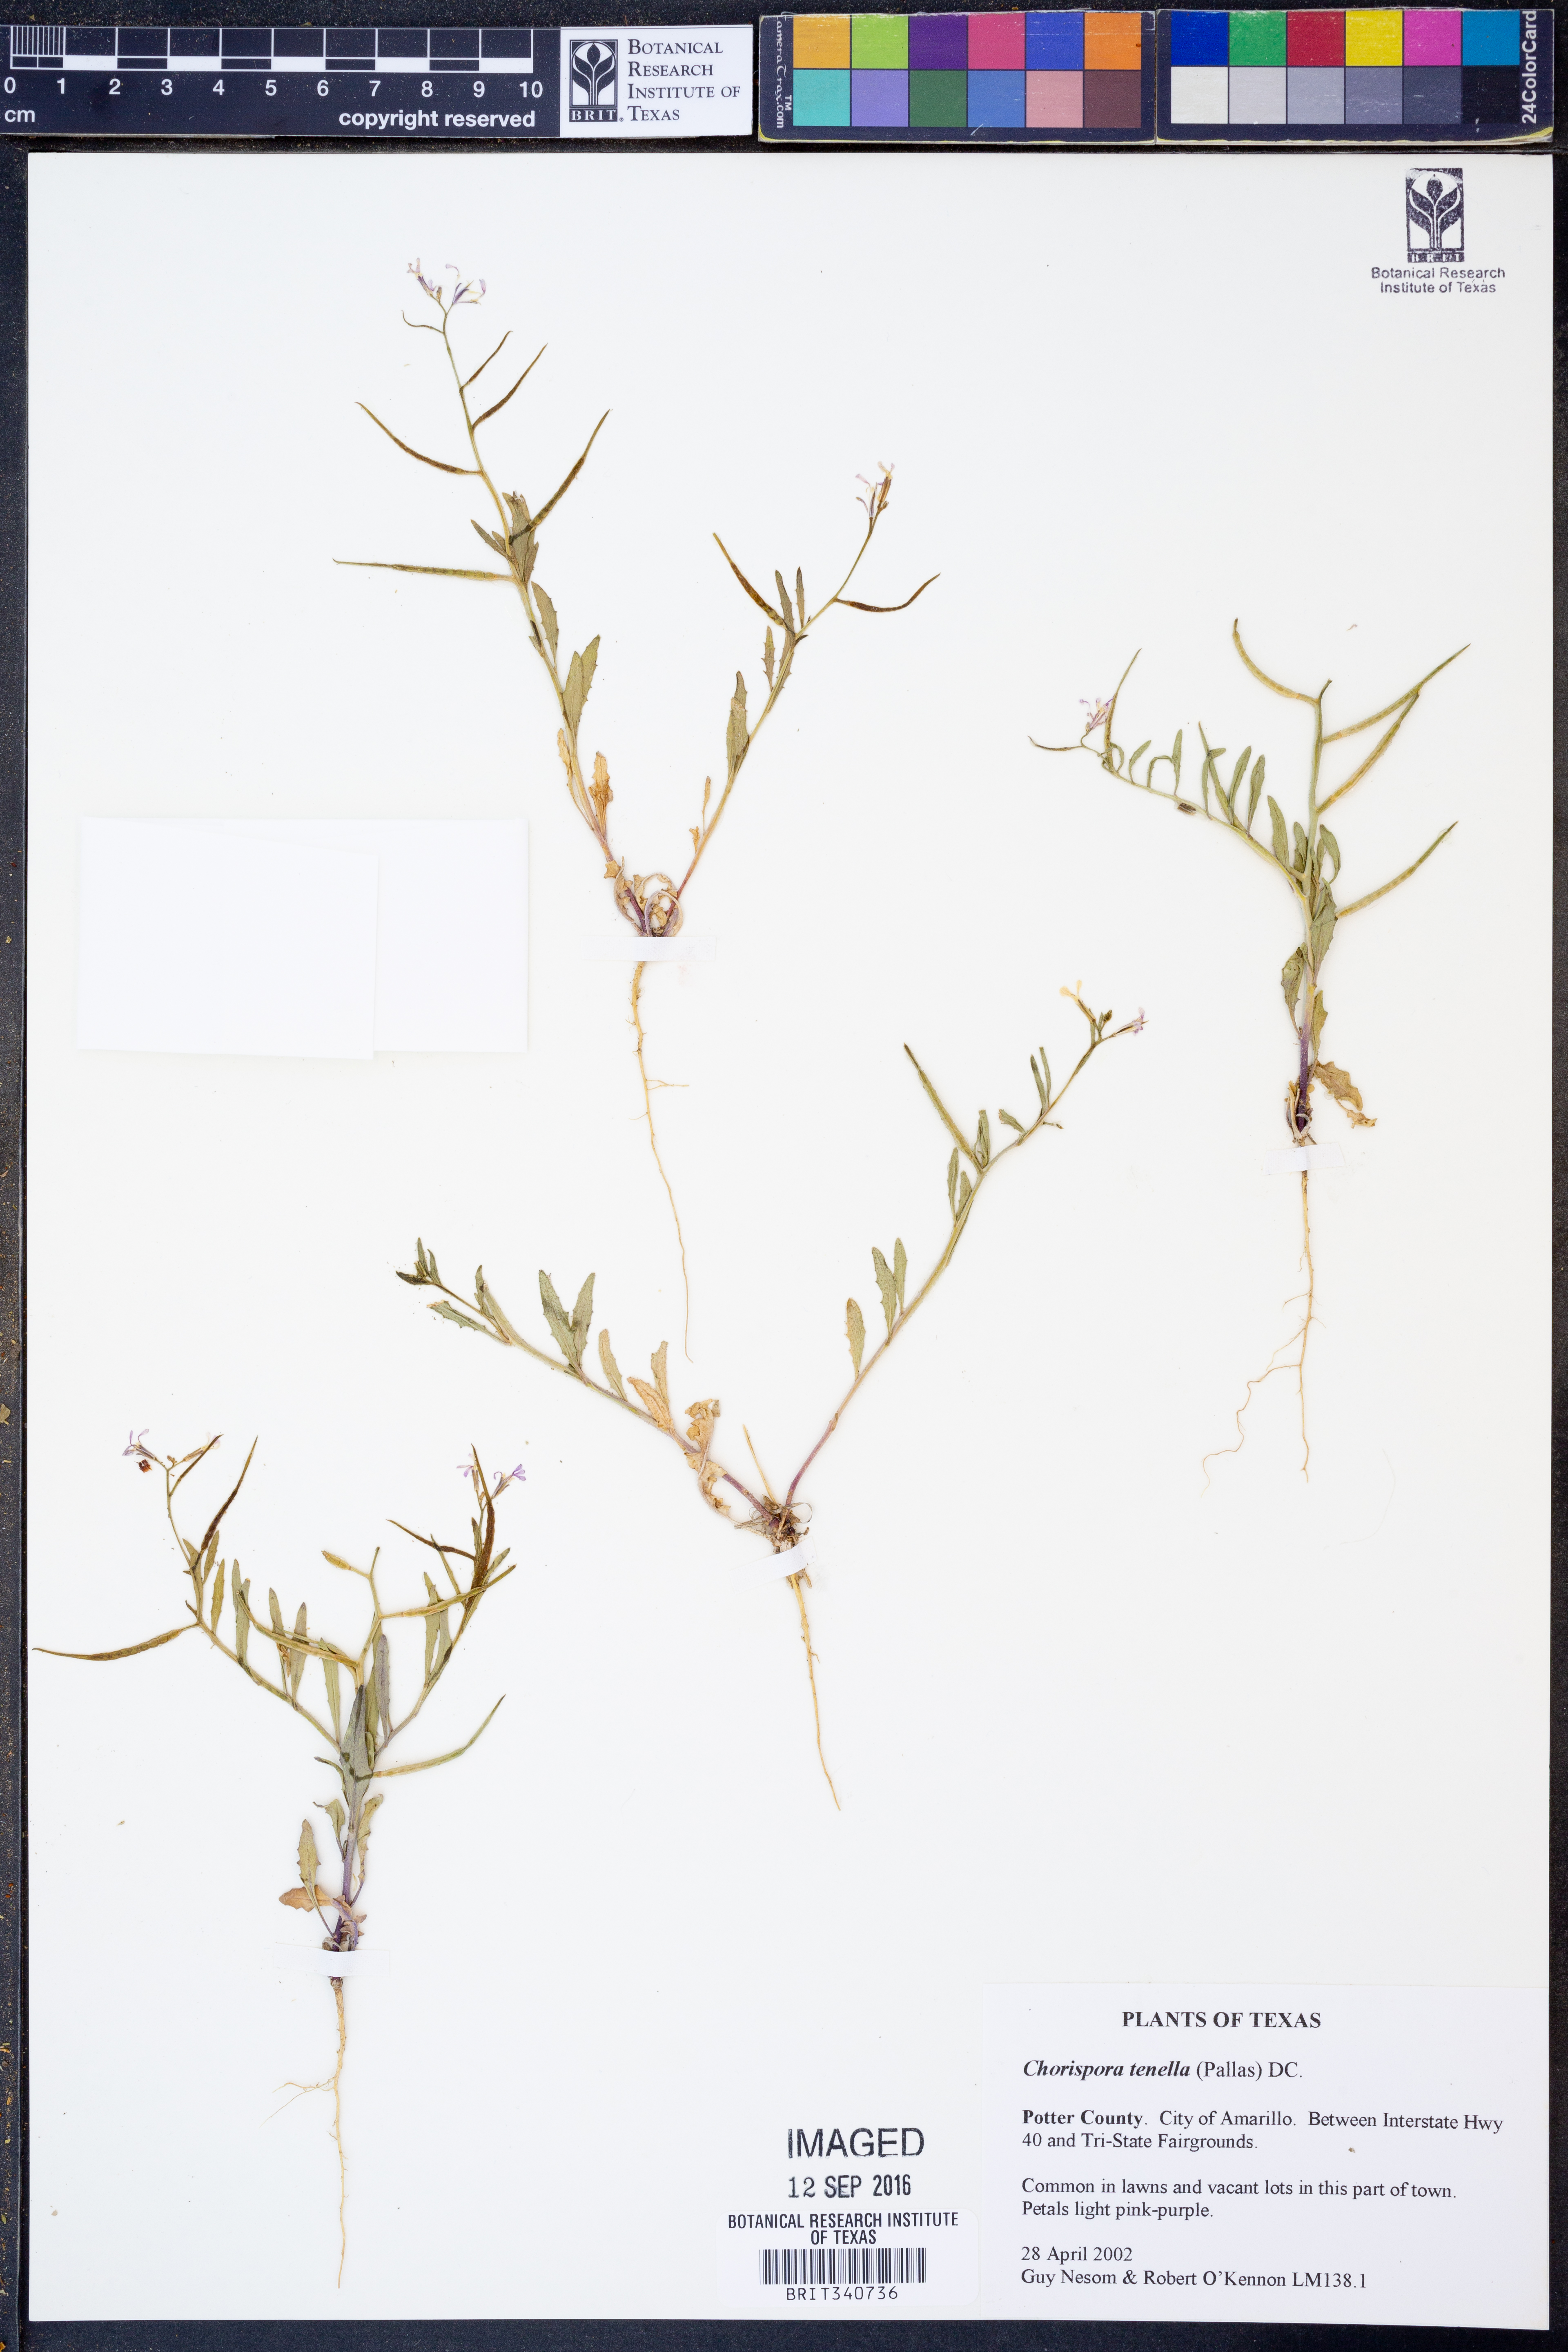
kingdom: Plantae
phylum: Tracheophyta
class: Magnoliopsida
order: Brassicales
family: Brassicaceae
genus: Chorispora
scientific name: Chorispora tenella
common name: Crossflower
